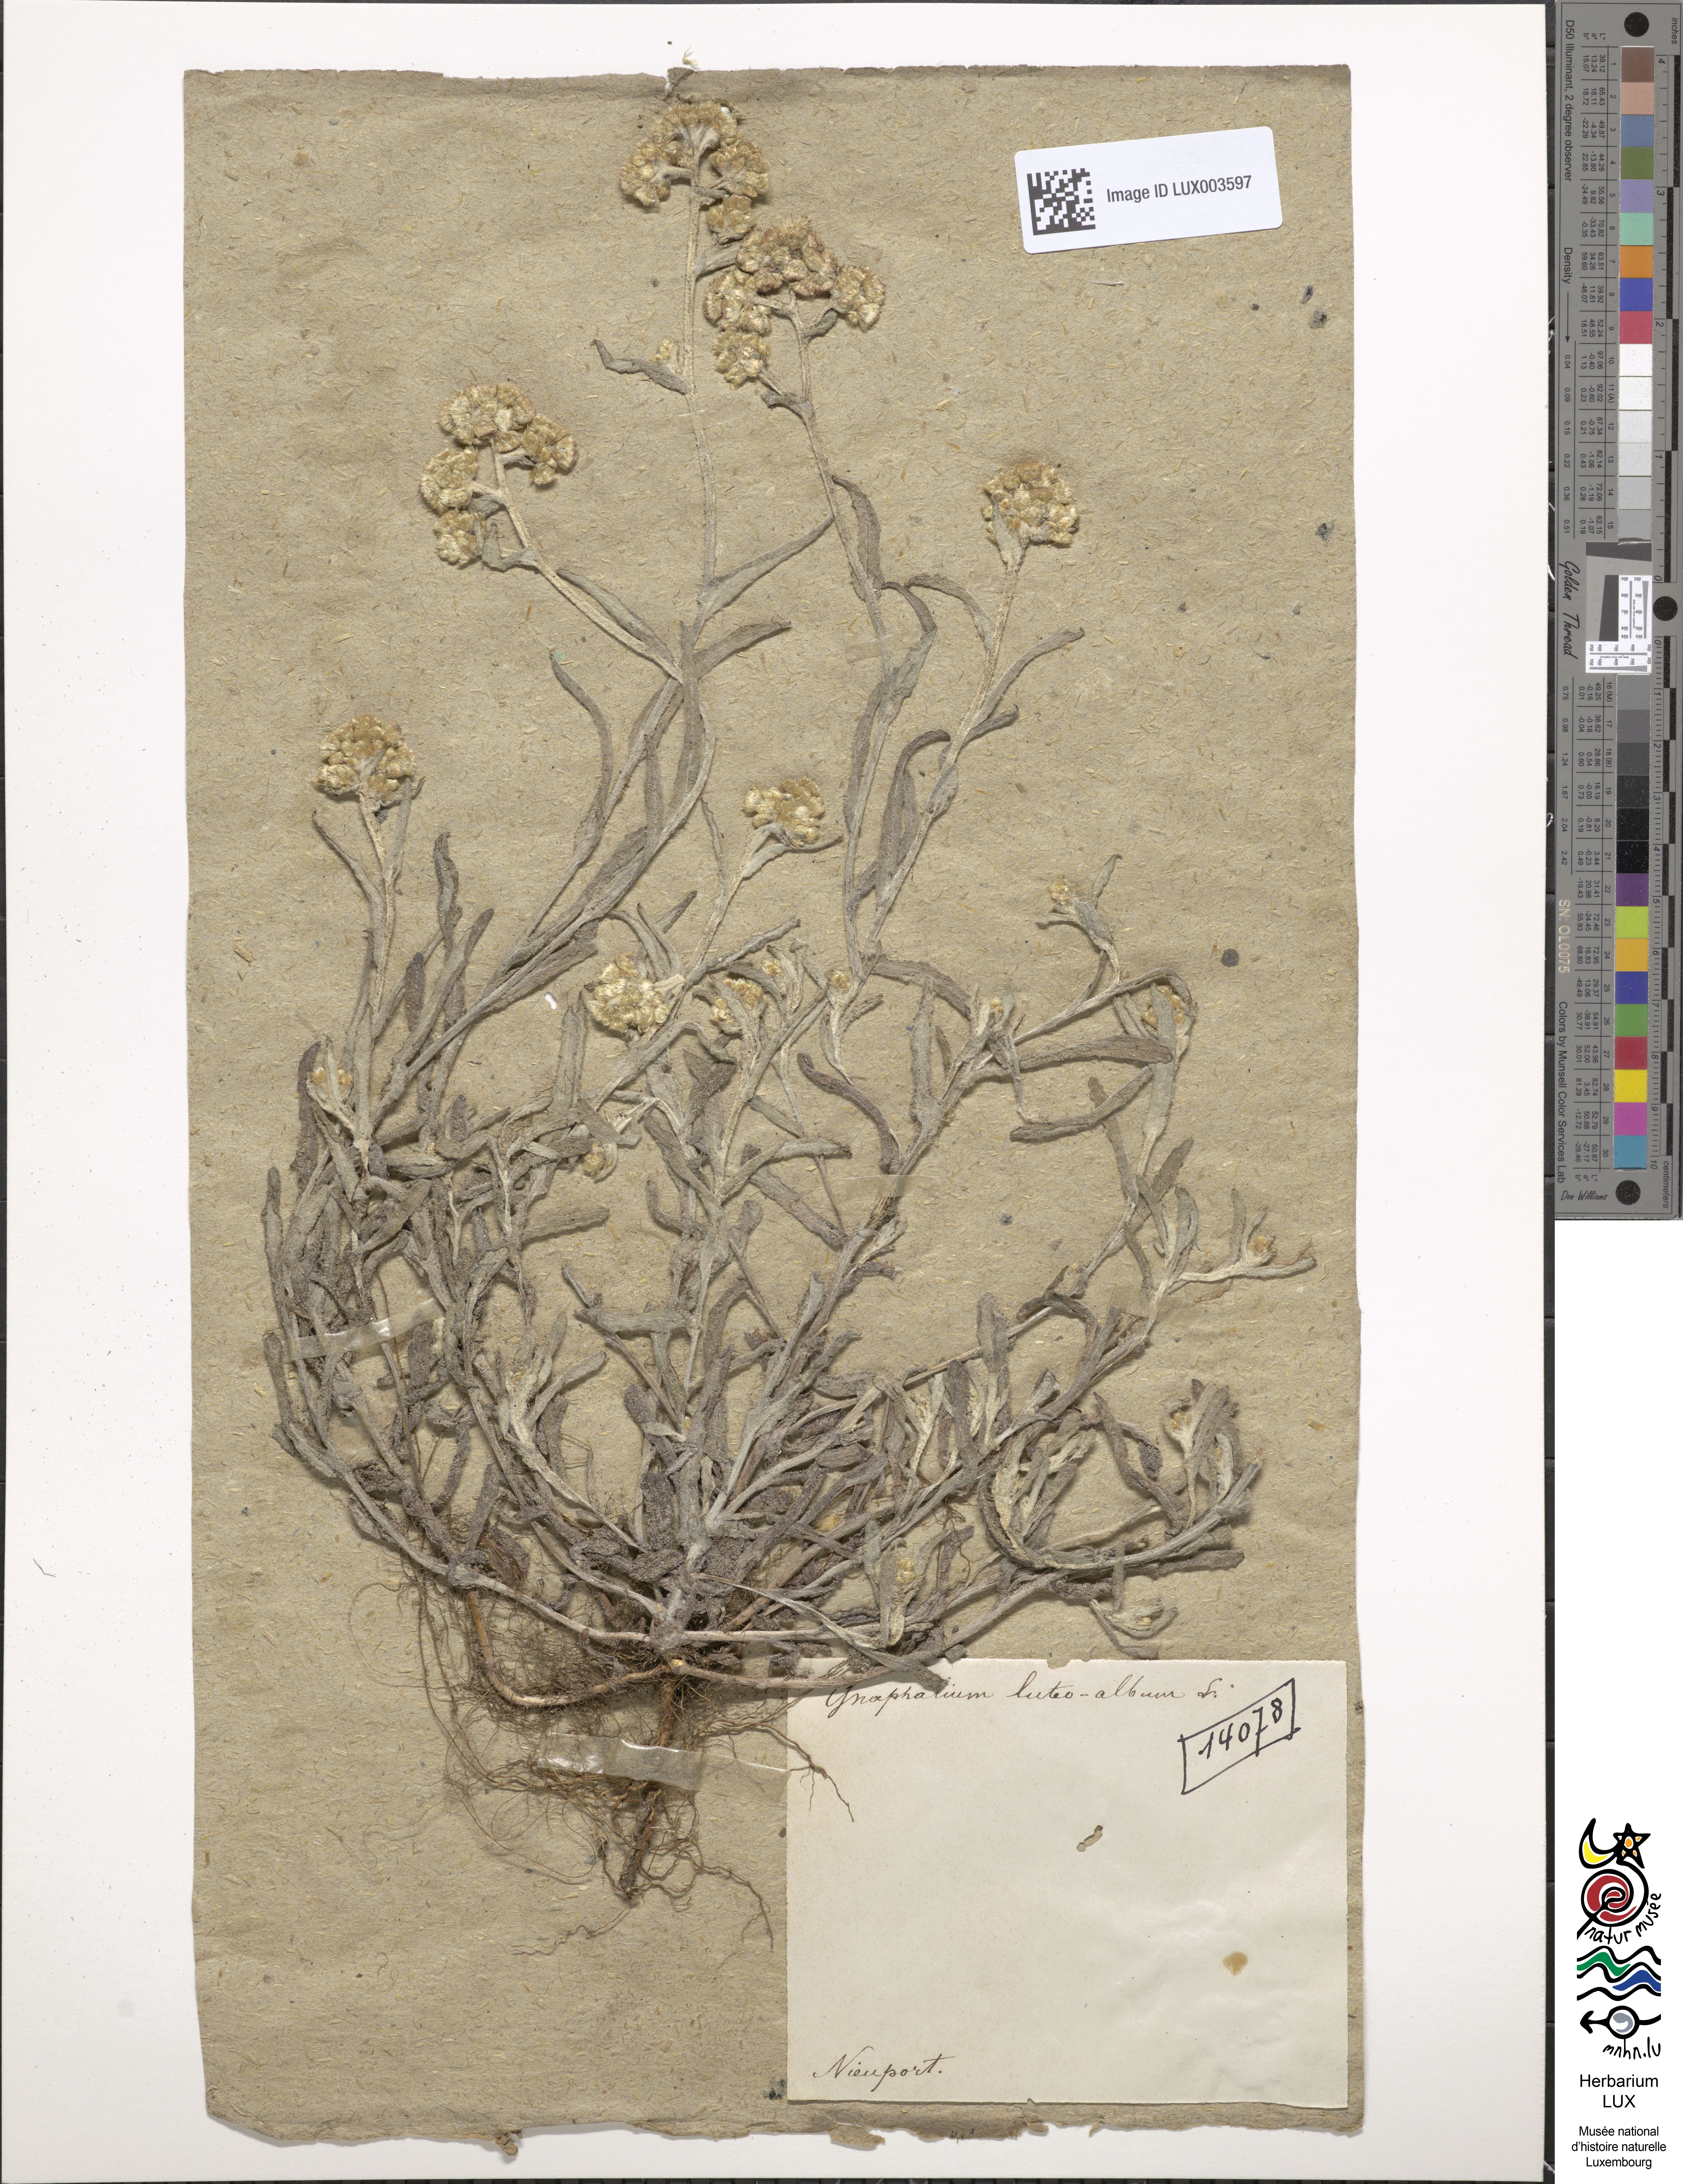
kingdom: Plantae
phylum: Tracheophyta
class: Magnoliopsida
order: Asterales
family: Asteraceae
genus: Helichrysum
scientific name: Helichrysum luteoalbum
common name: Daisy
